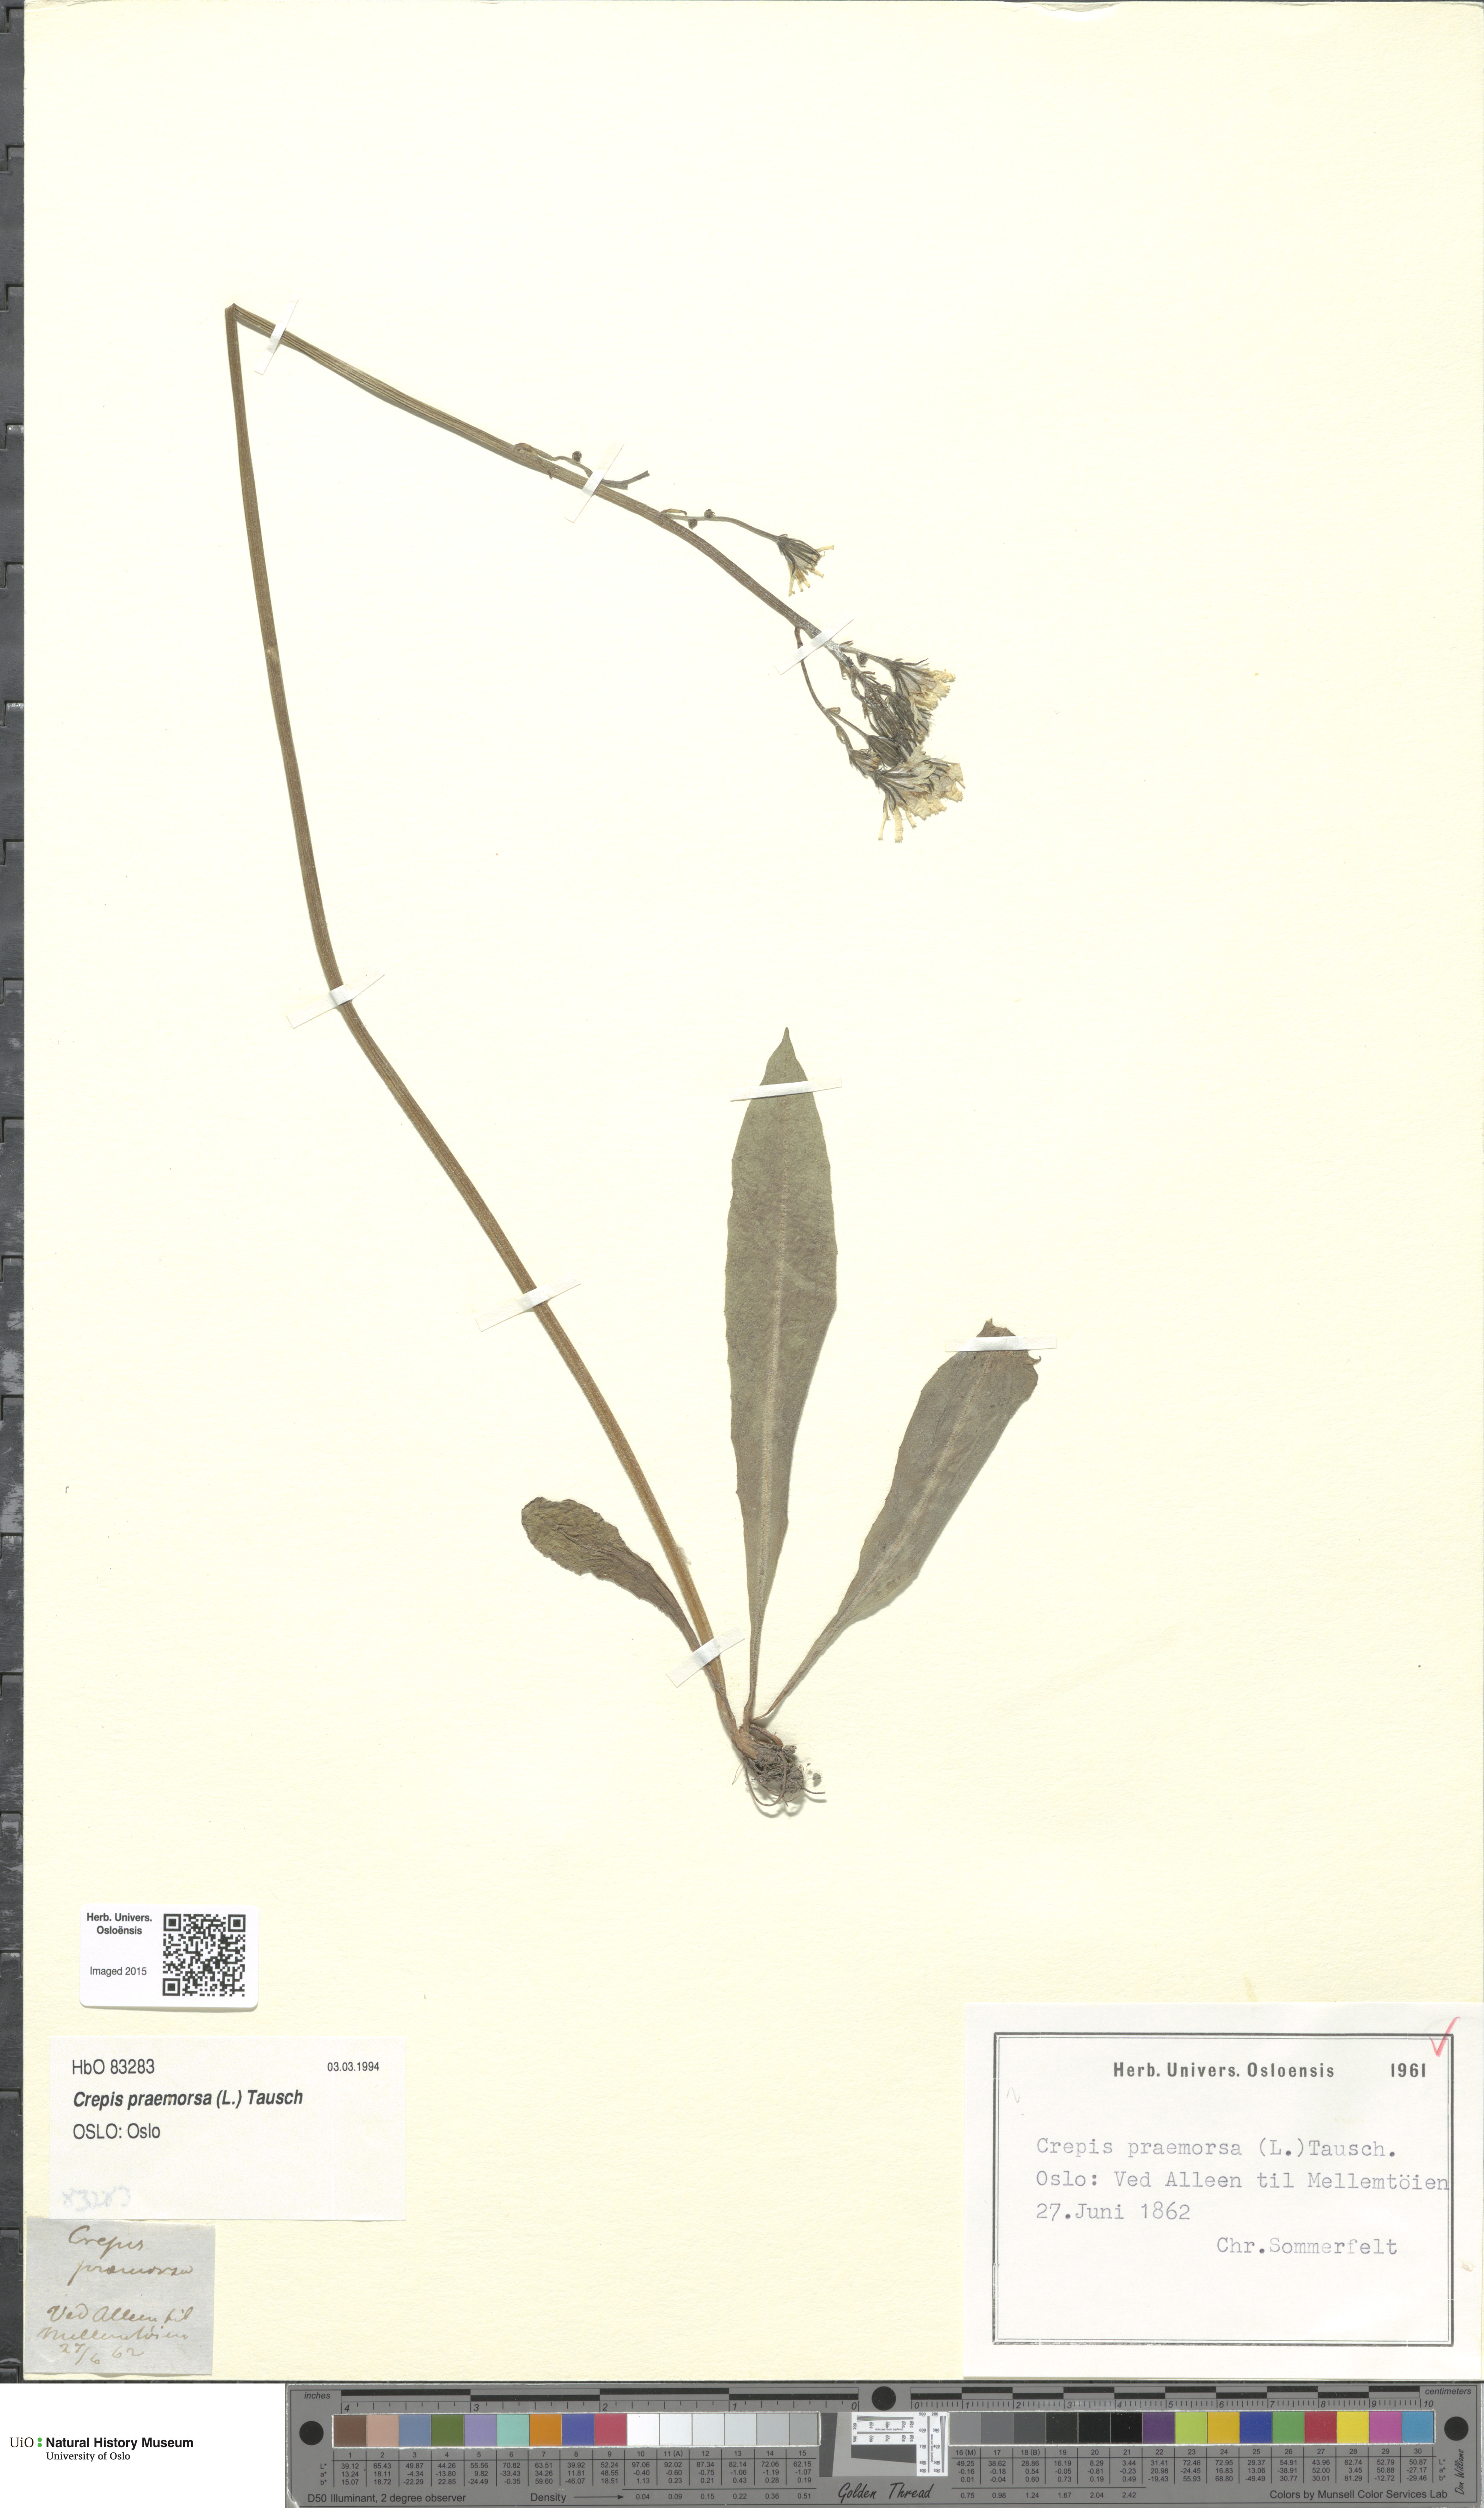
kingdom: Plantae
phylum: Tracheophyta
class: Magnoliopsida
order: Asterales
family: Asteraceae
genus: Crepis
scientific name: Crepis praemorsa
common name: Leafless hawk's-beard
